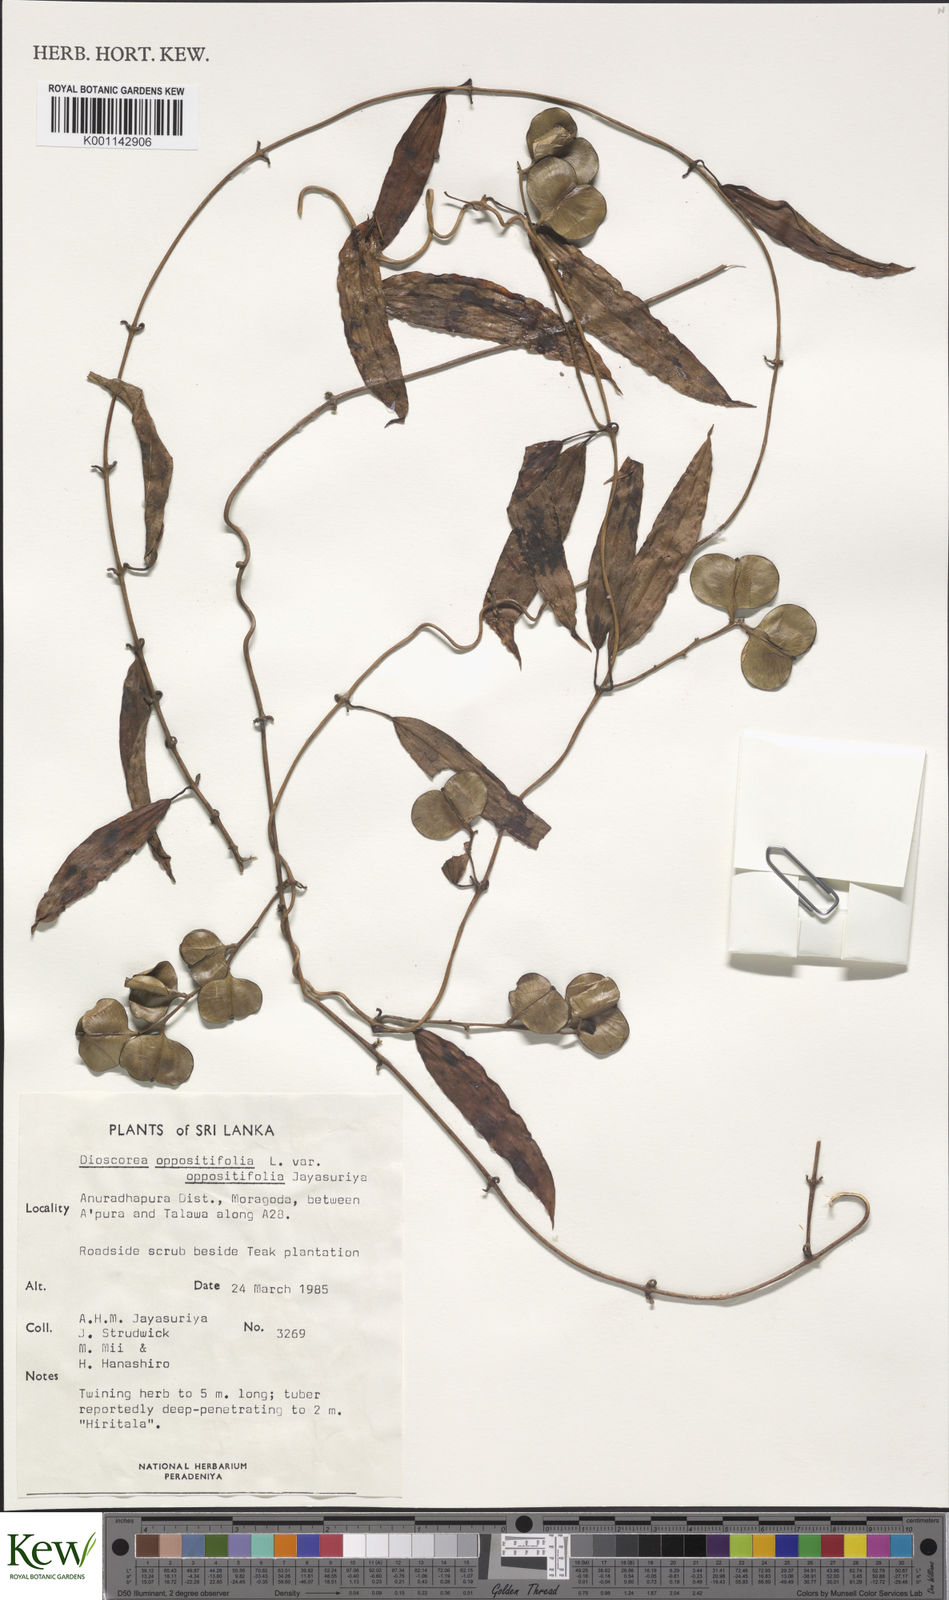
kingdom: Plantae
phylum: Tracheophyta
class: Liliopsida
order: Dioscoreales
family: Dioscoreaceae
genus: Dioscorea
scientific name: Dioscorea oppositifolia
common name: Chinese yam
